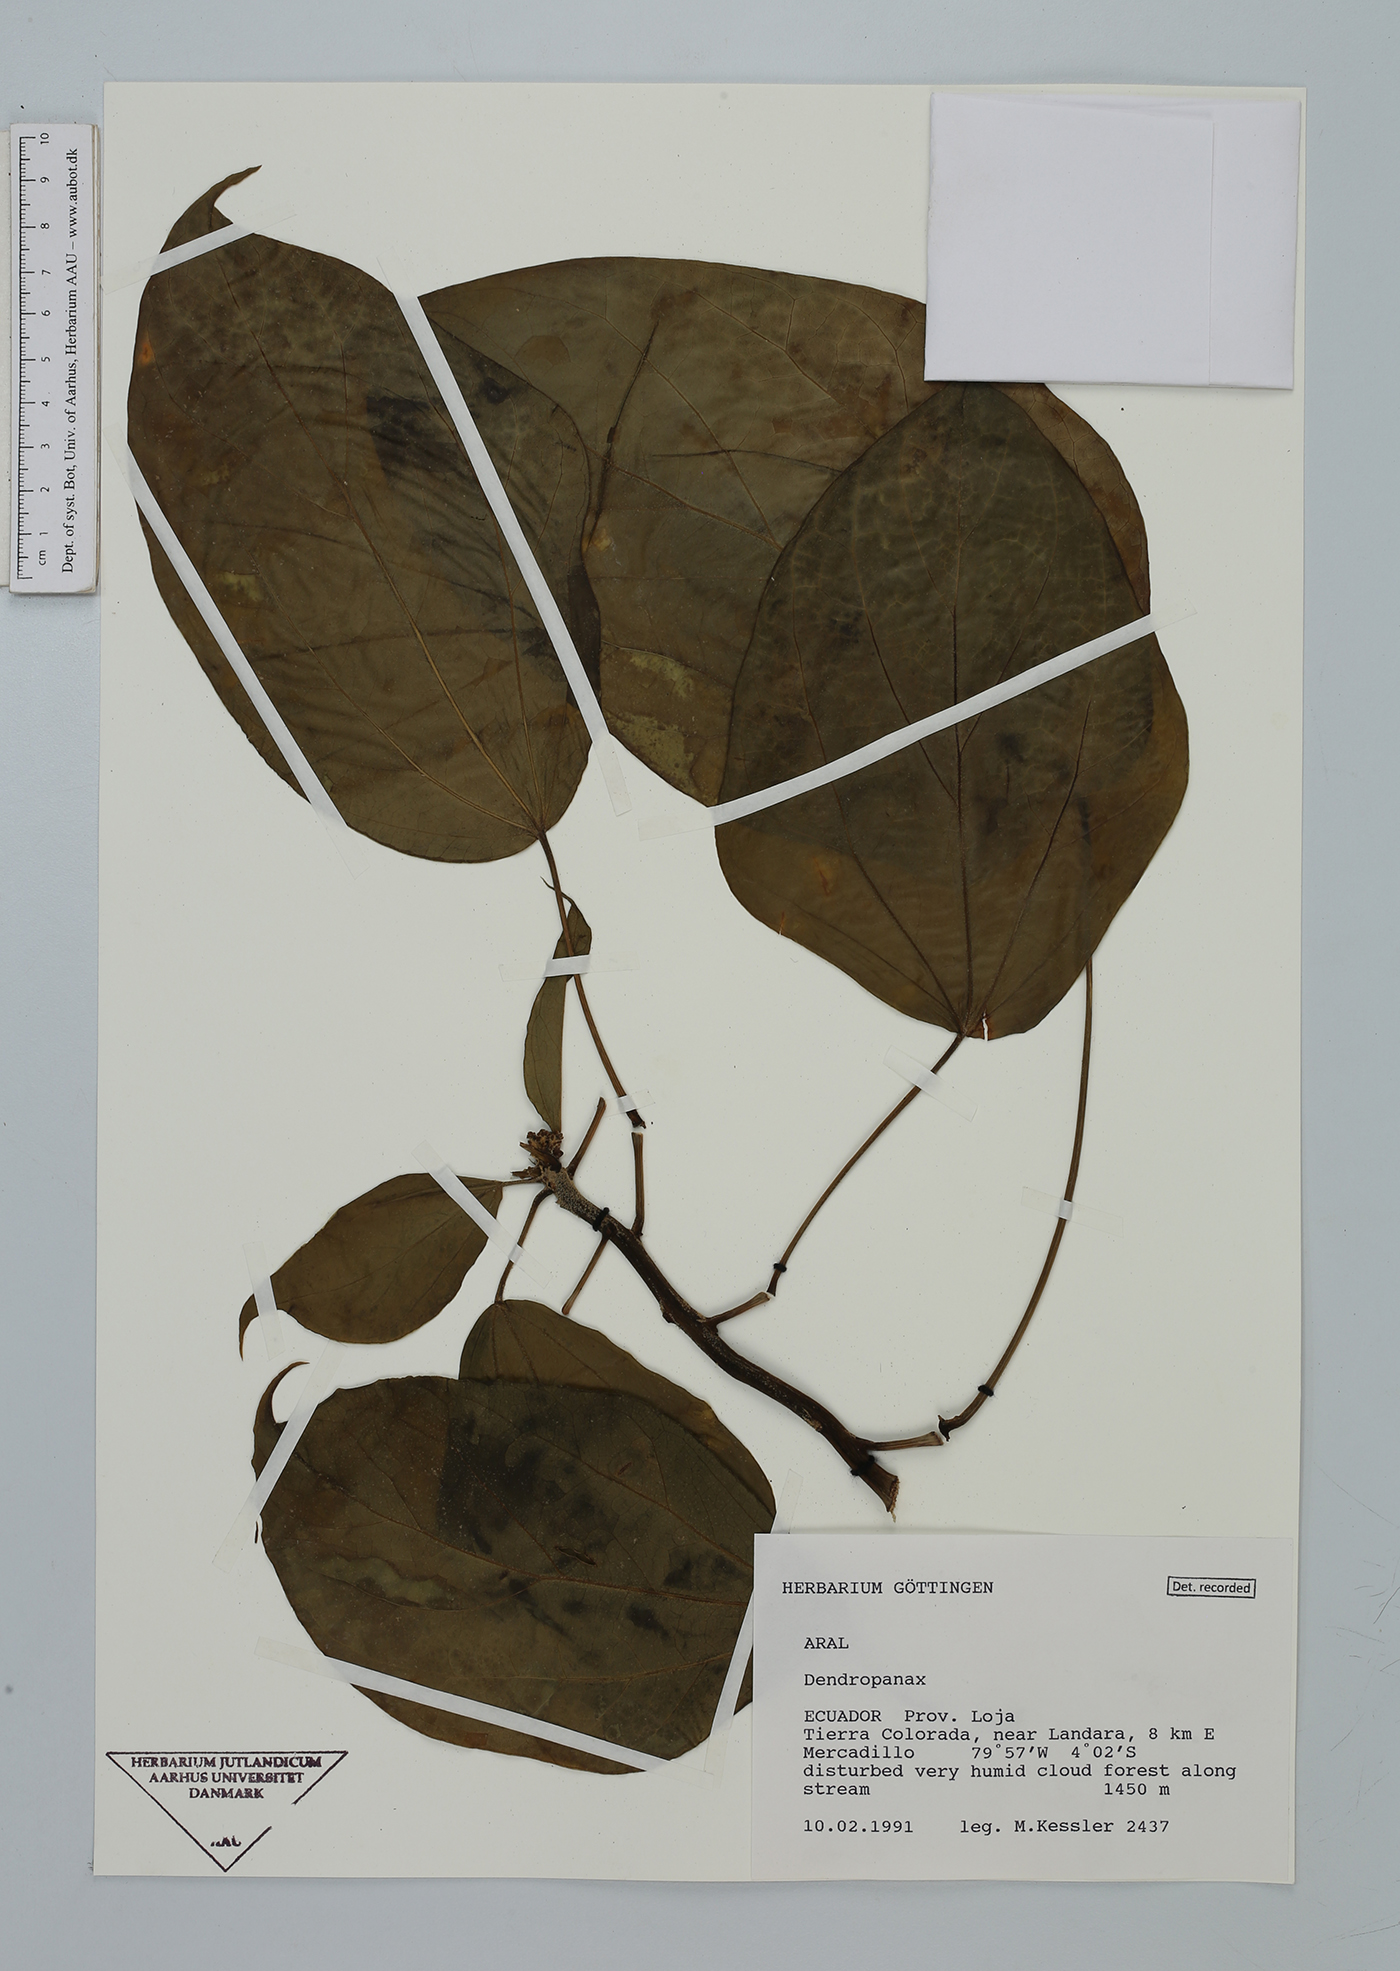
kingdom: Plantae
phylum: Tracheophyta
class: Magnoliopsida
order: Apiales
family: Araliaceae
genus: Dendropanax
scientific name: Dendropanax
